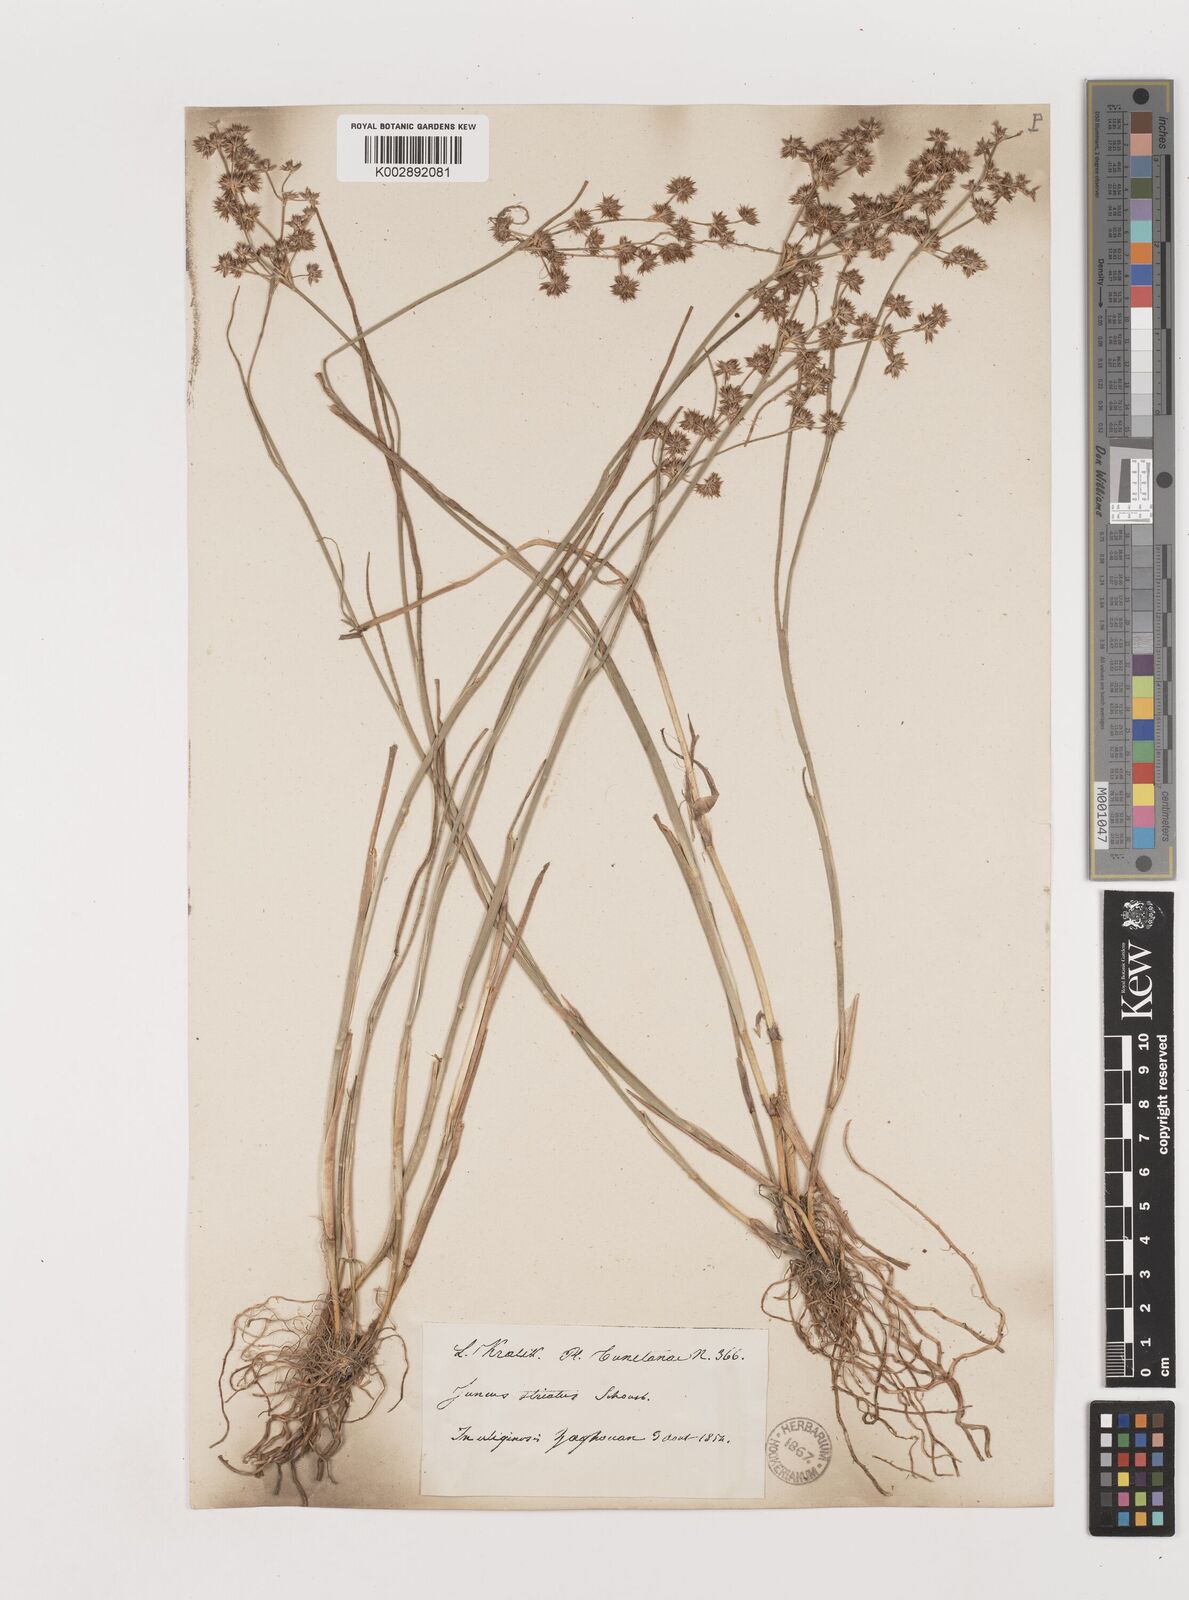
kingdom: Plantae
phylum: Tracheophyta
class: Liliopsida
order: Poales
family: Juncaceae
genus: Juncus
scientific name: Juncus striatus
